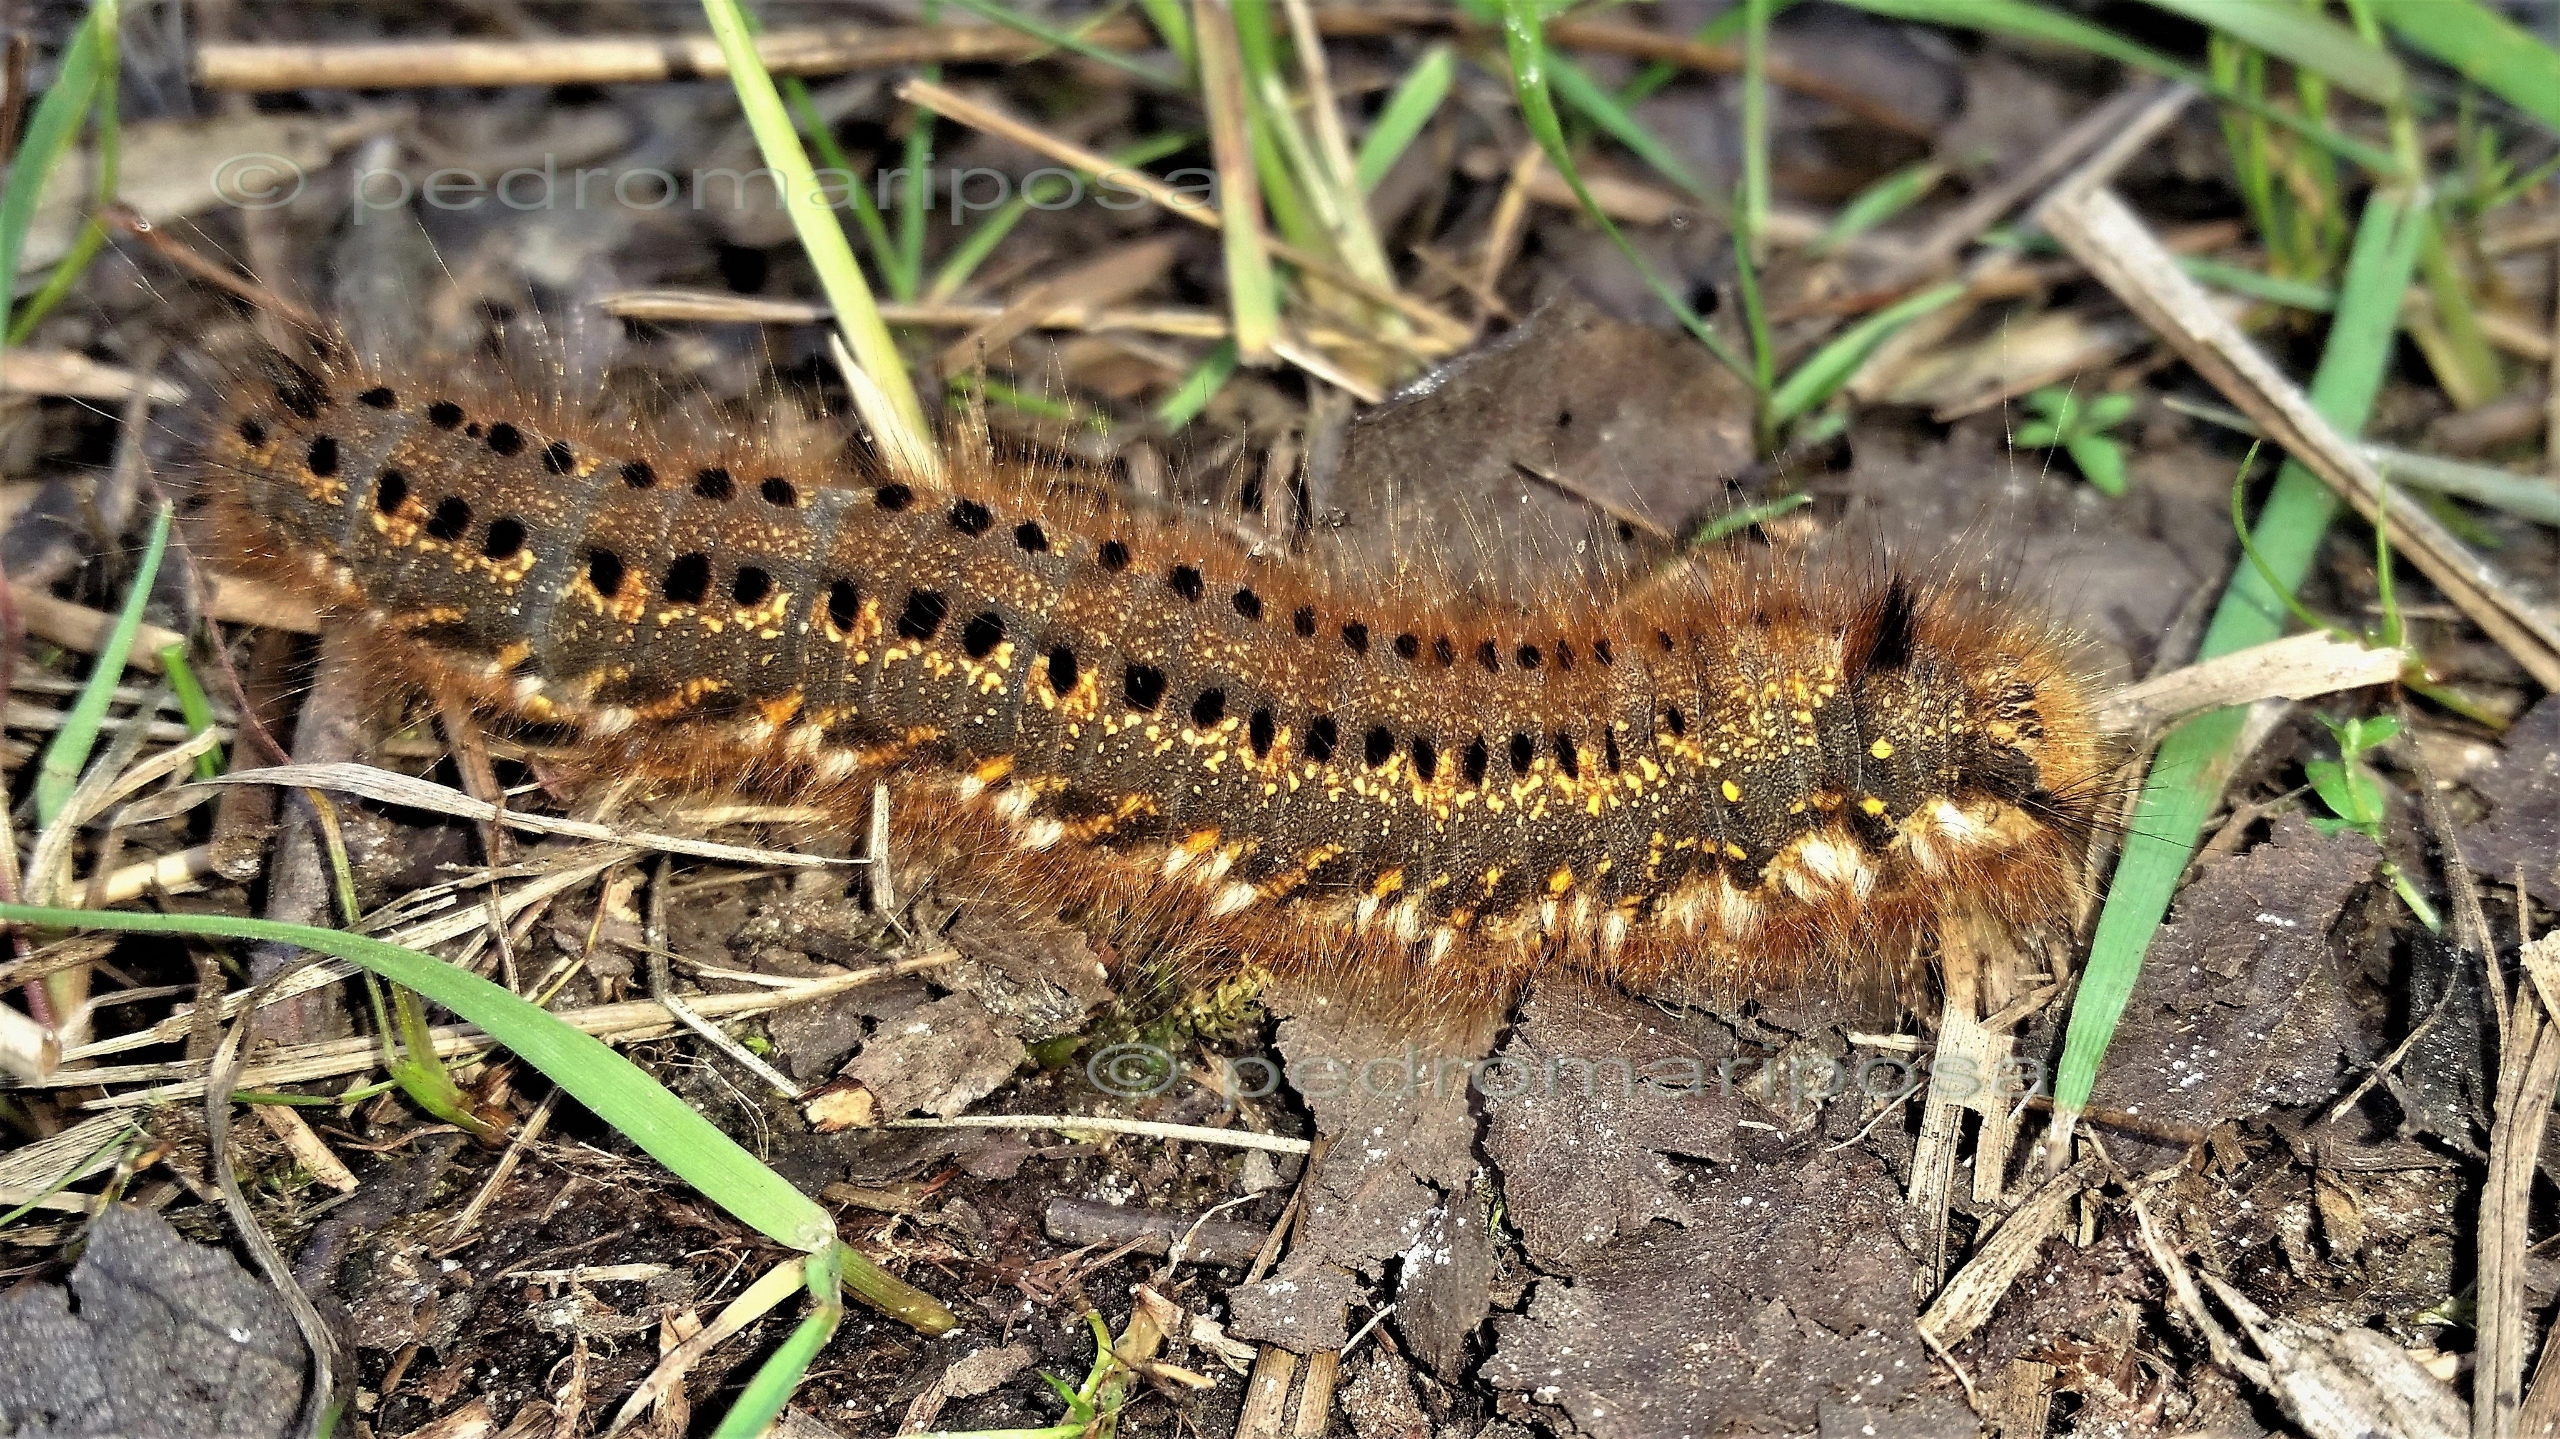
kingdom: Animalia
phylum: Arthropoda
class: Insecta
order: Lepidoptera
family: Lasiocampidae
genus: Euthrix
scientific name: Euthrix potatoria
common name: Græsspinder
